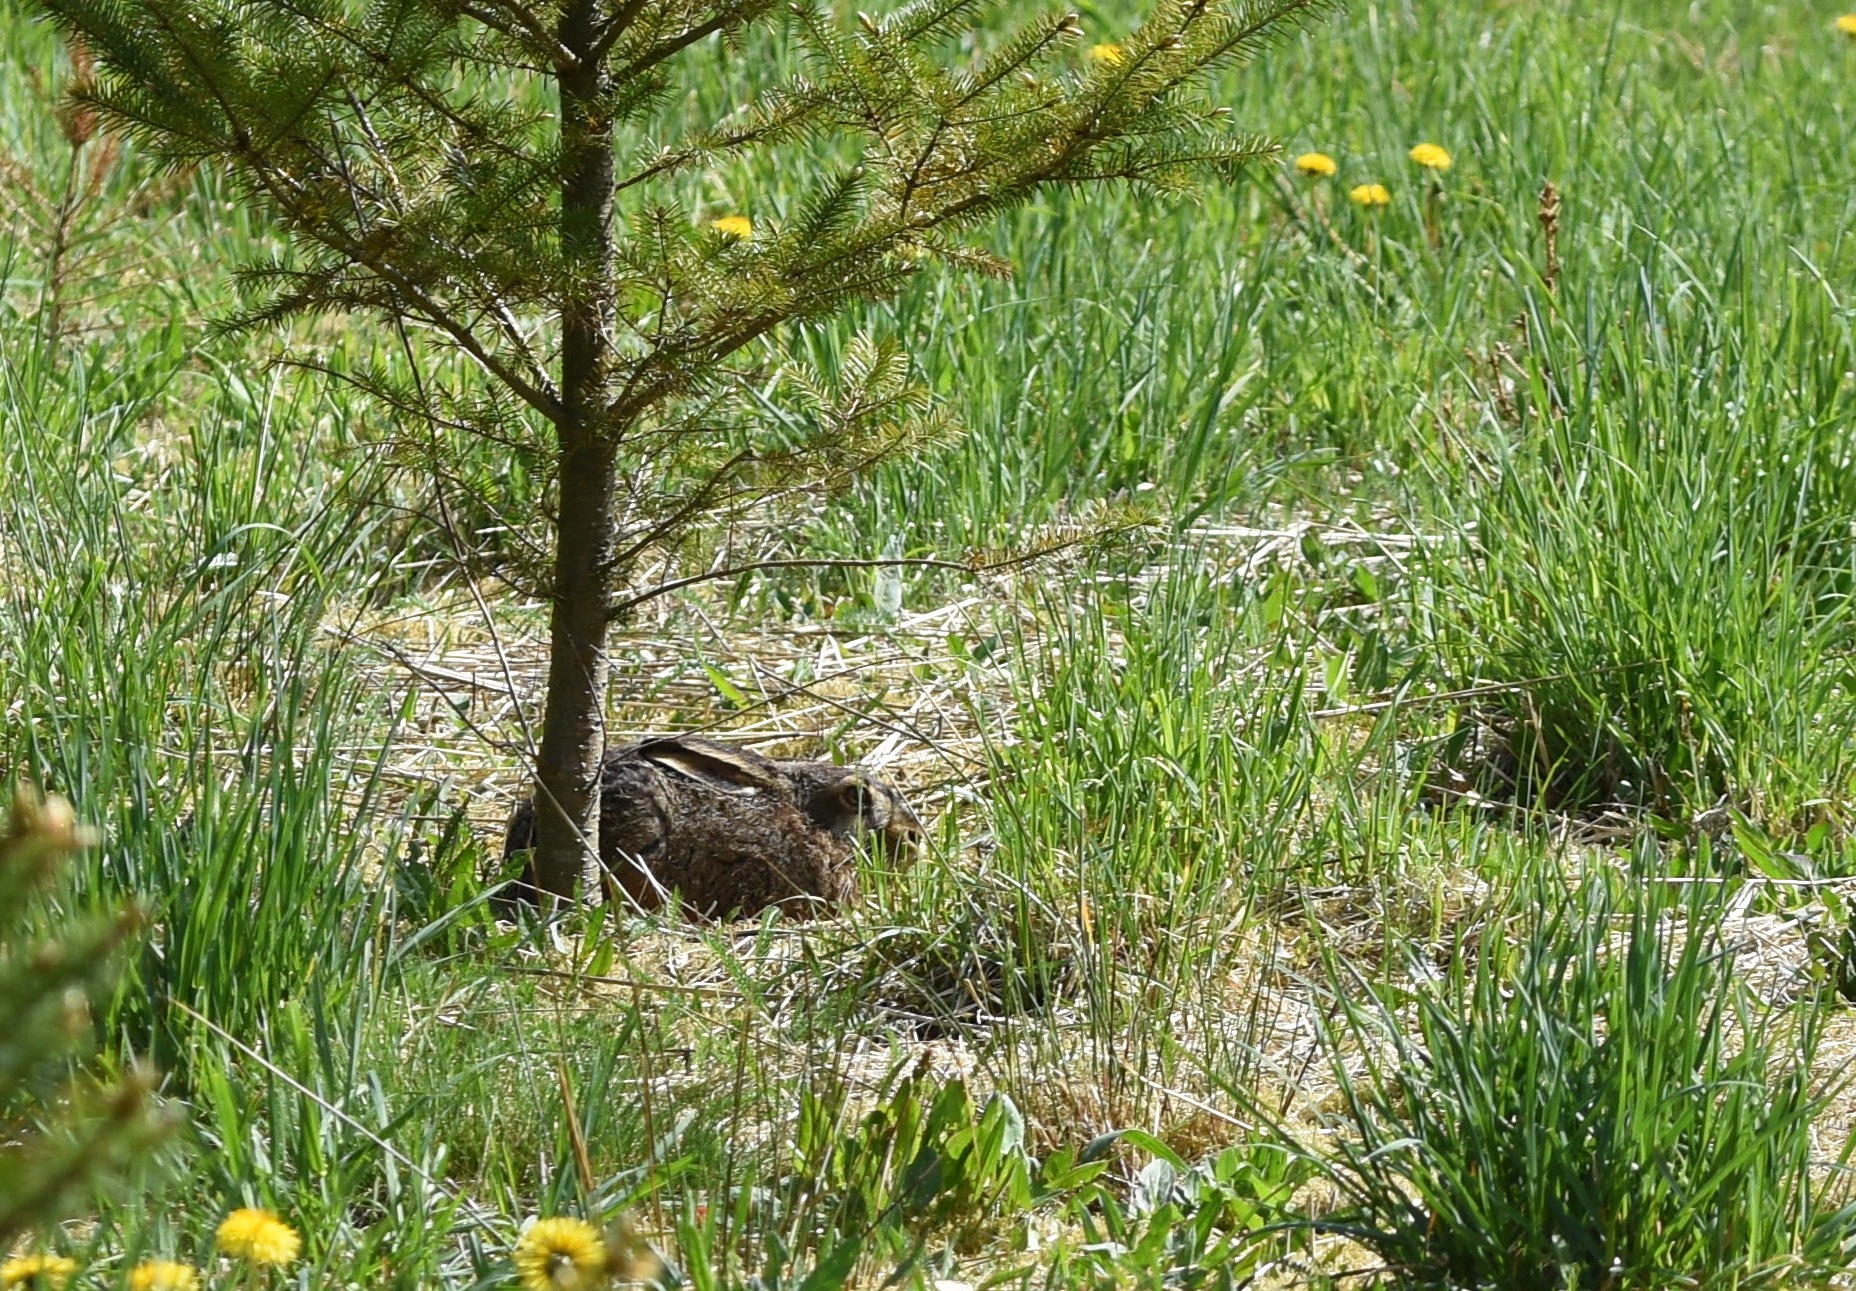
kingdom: Animalia
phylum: Chordata
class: Mammalia
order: Lagomorpha
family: Leporidae
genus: Lepus
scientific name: Lepus europaeus
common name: Hare
